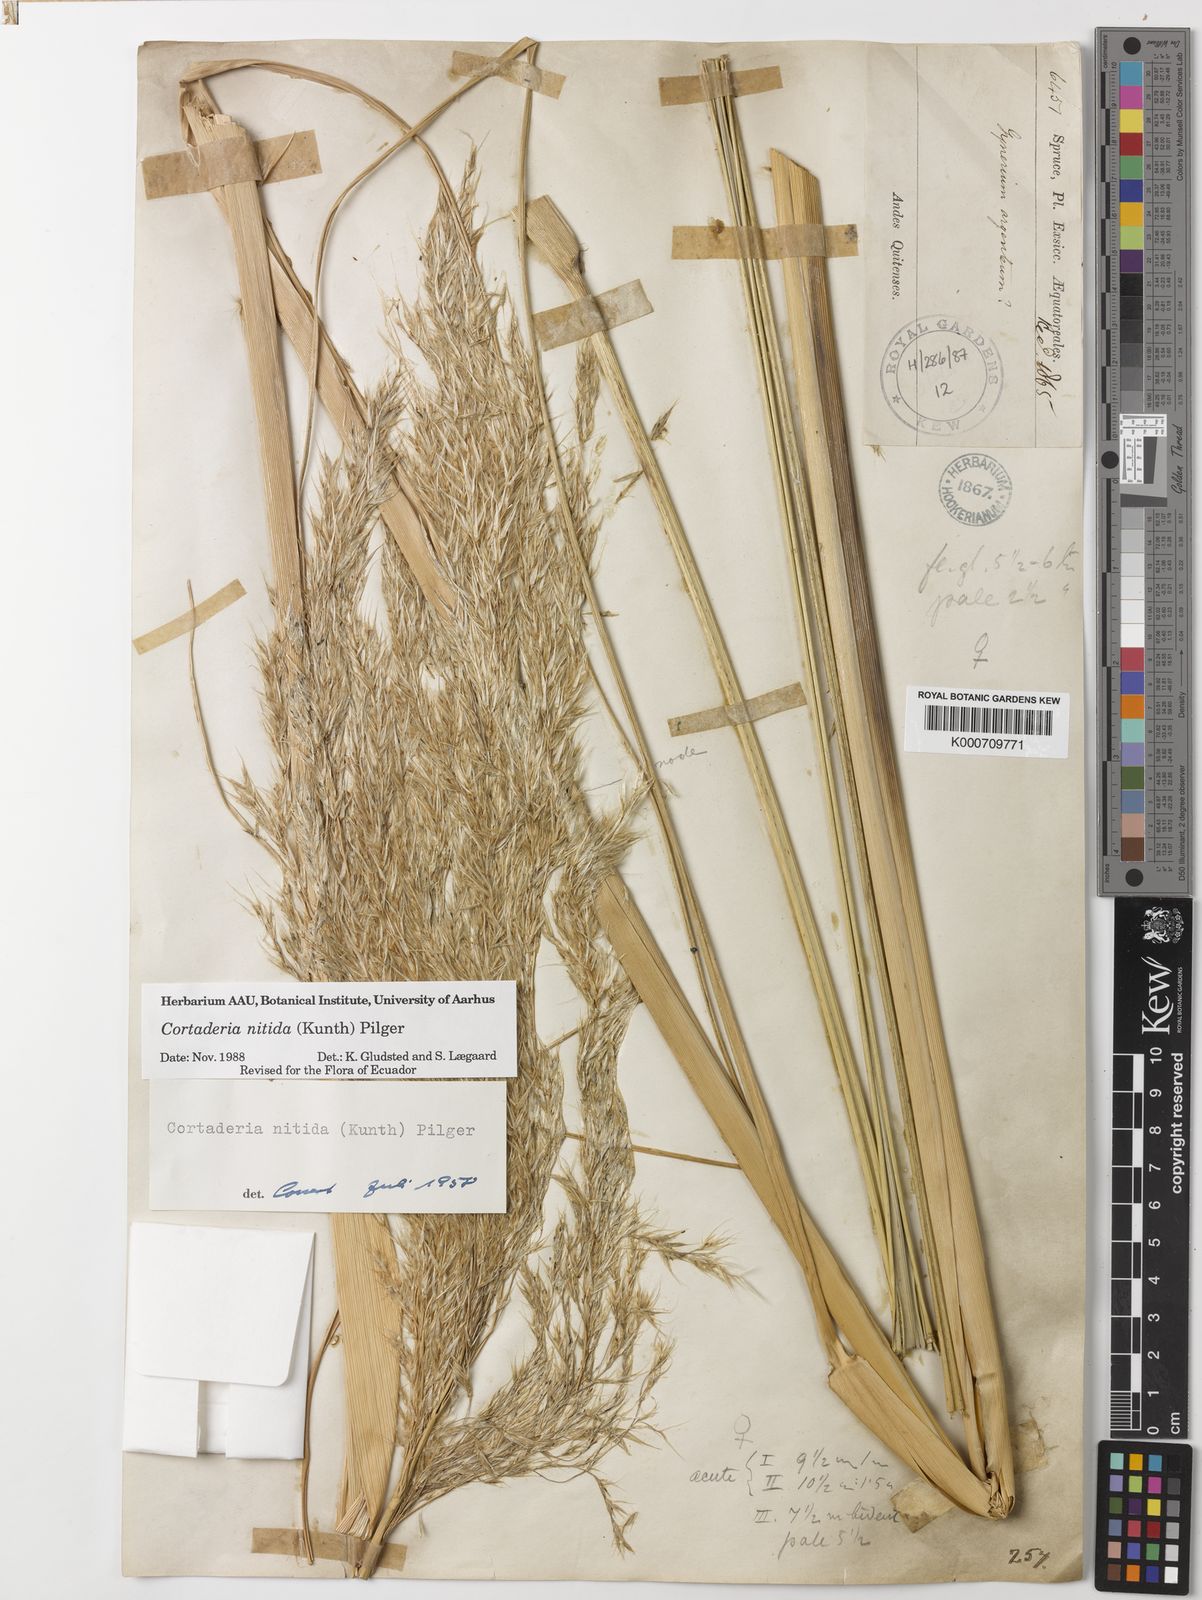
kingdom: Plantae
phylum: Tracheophyta
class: Liliopsida
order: Poales
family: Poaceae
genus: Cortaderia
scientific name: Cortaderia nitida
